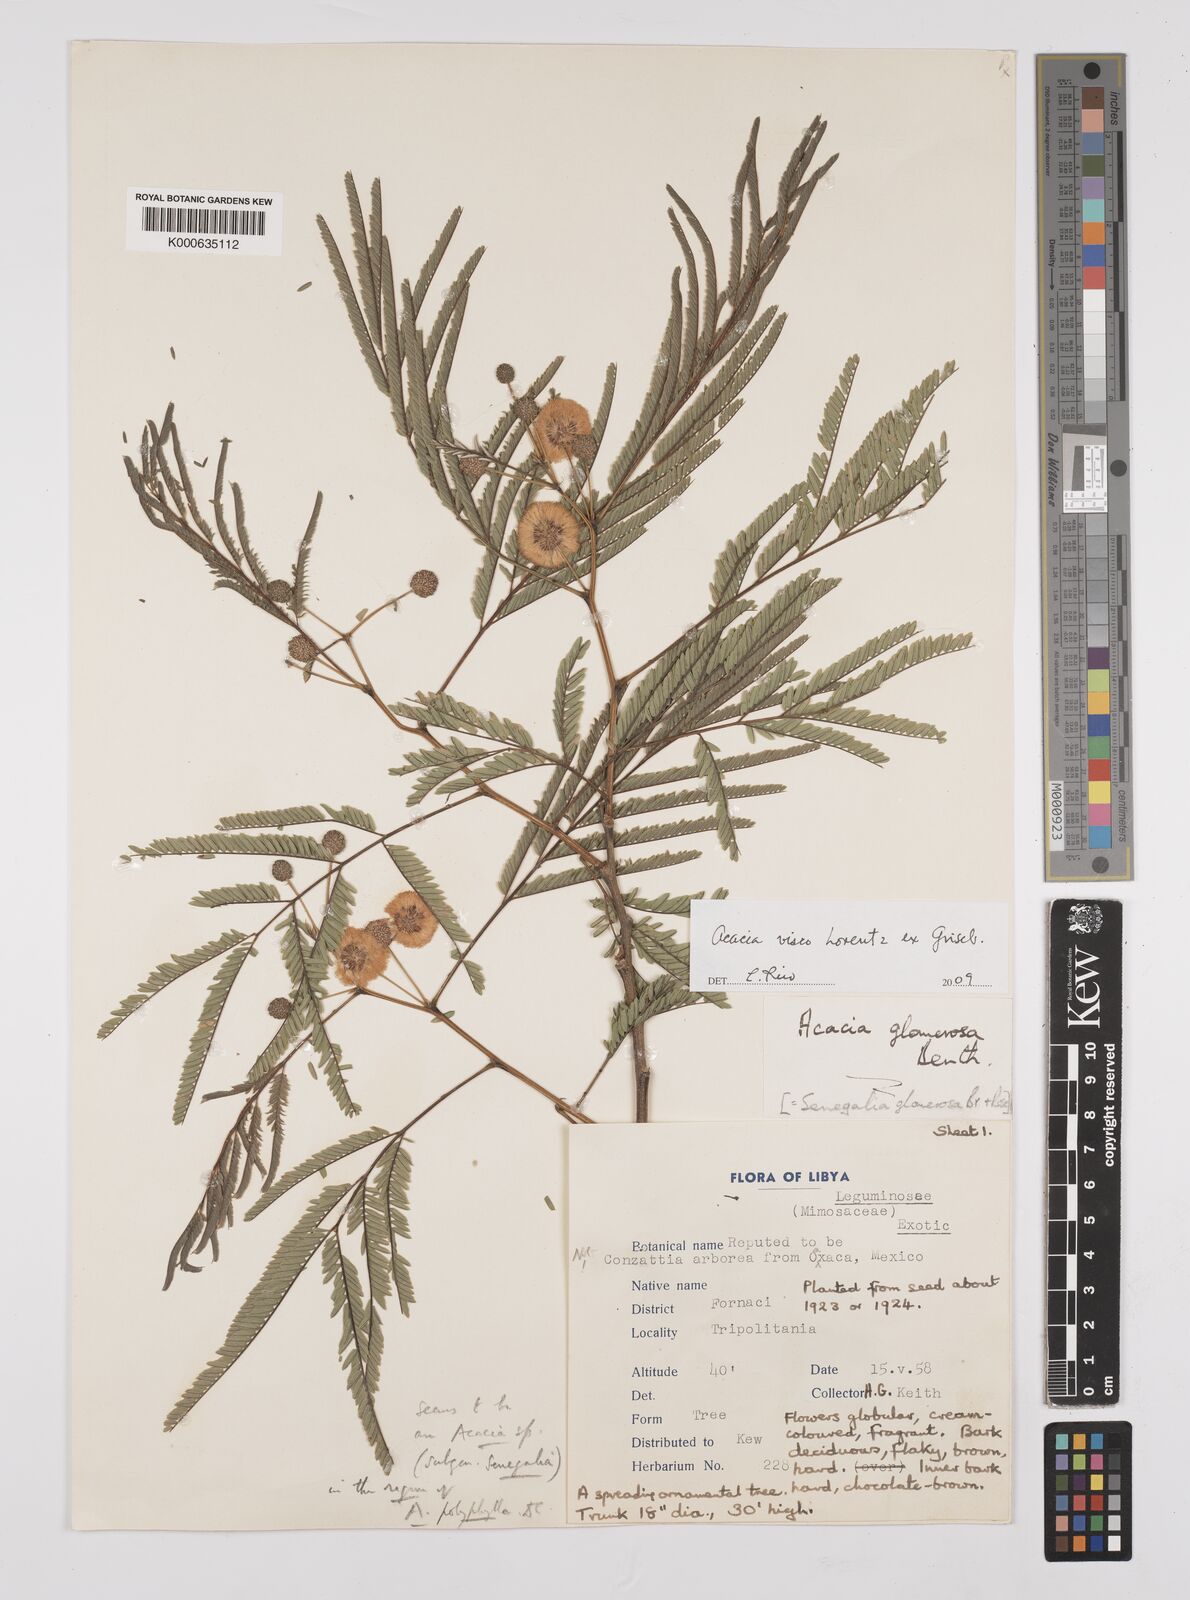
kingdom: Plantae
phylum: Tracheophyta
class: Magnoliopsida
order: Fabales
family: Fabaceae
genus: Parasenegalia
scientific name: Parasenegalia visco
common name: Visco
